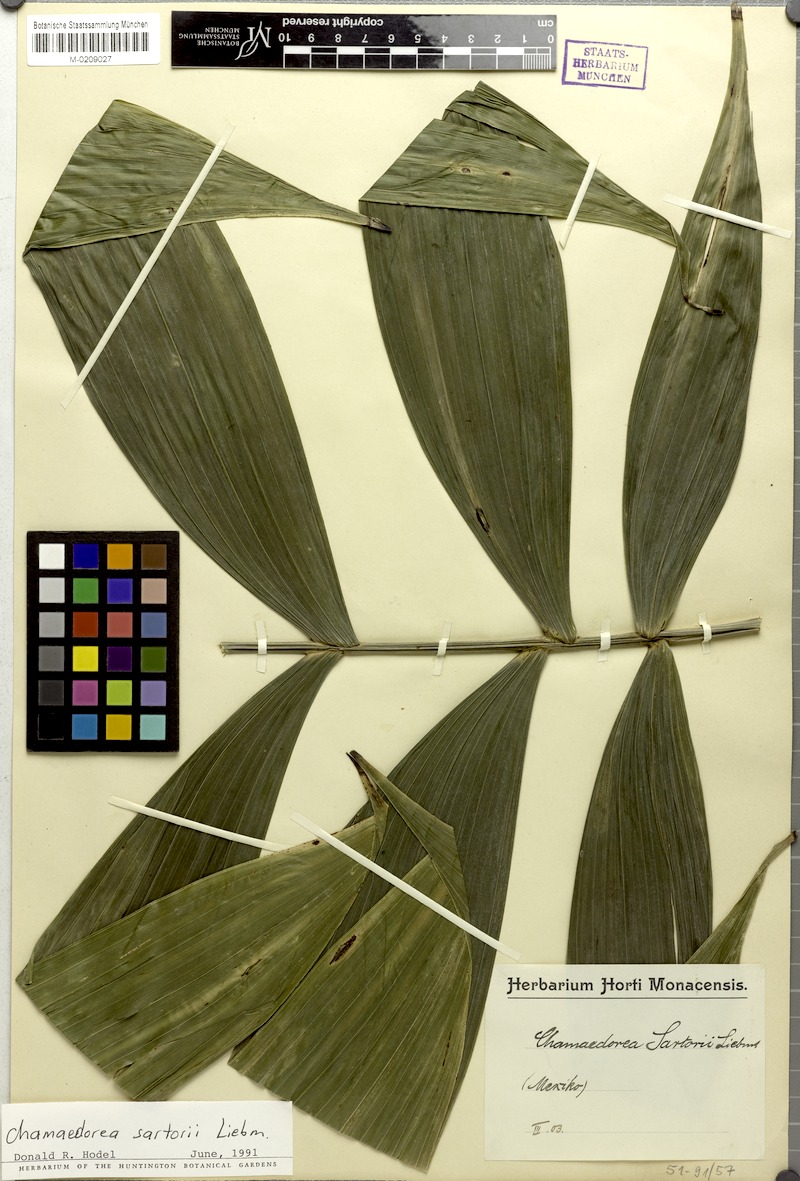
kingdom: Plantae
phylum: Tracheophyta
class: Liliopsida
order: Arecales
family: Arecaceae
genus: Chamaedorea
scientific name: Chamaedorea sartorii
